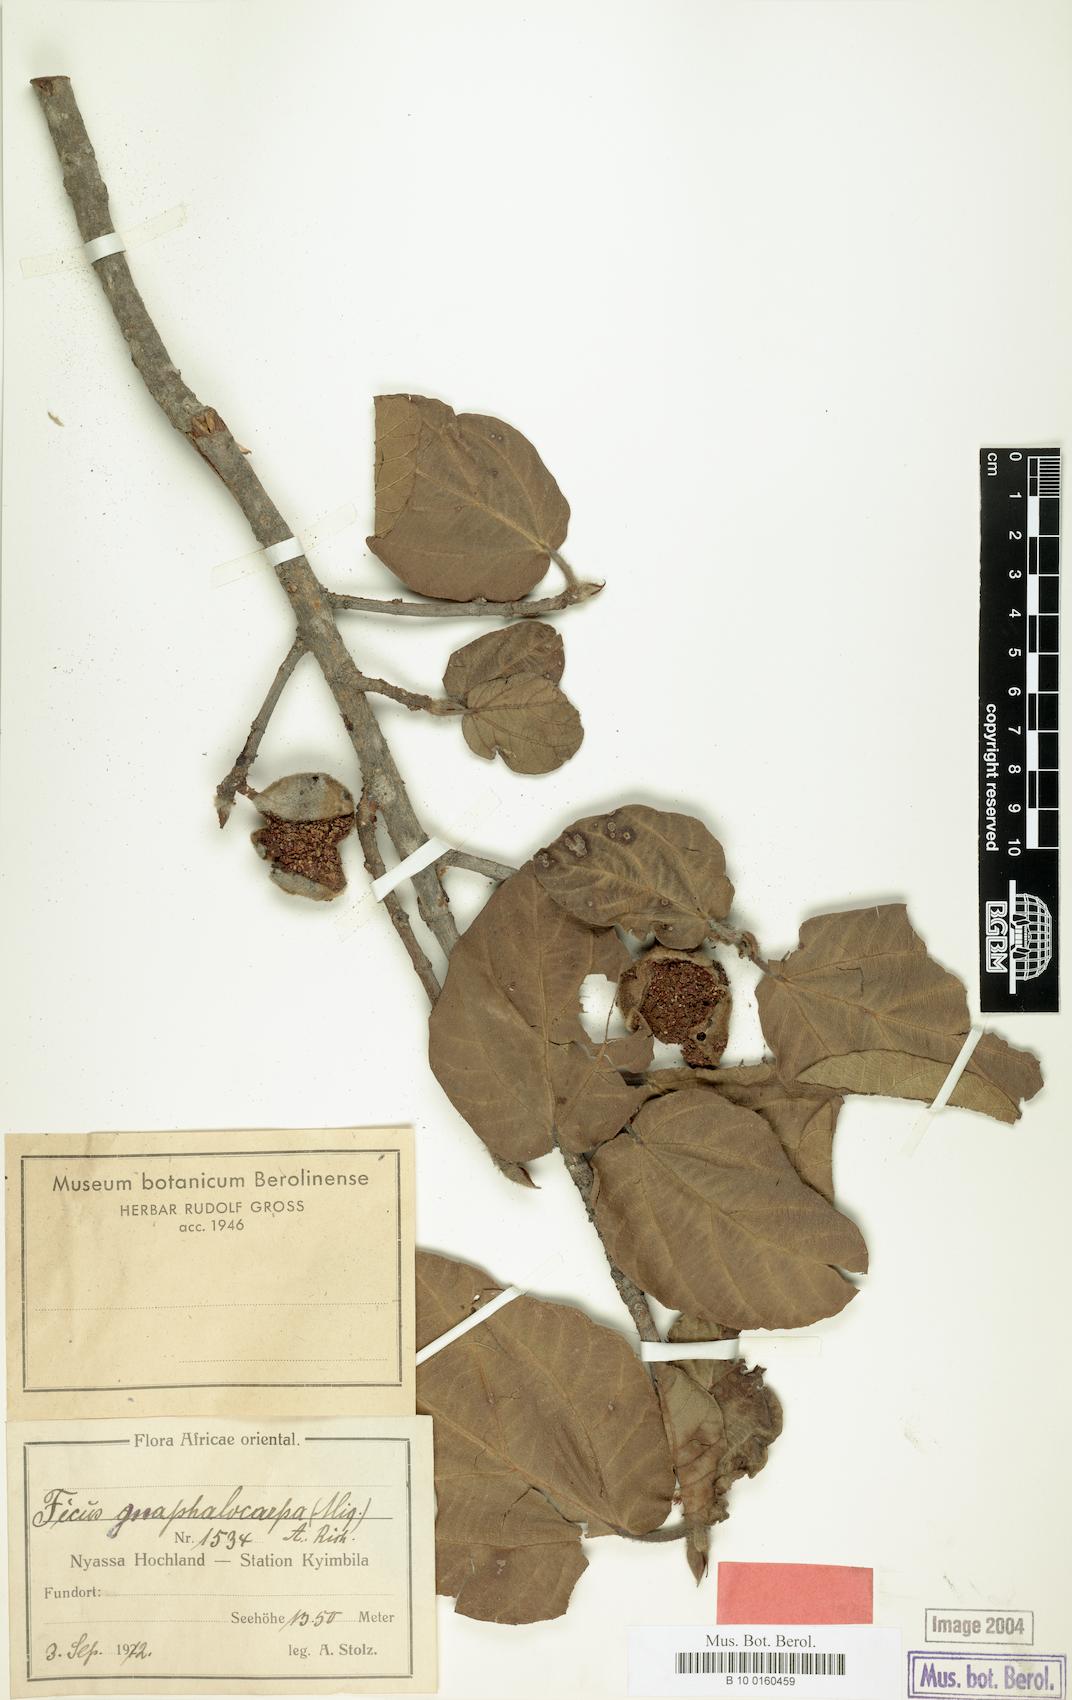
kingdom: Plantae
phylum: Tracheophyta
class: Magnoliopsida
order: Rosales
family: Moraceae
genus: Ficus
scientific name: Ficus sycomorus
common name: Sycomore
